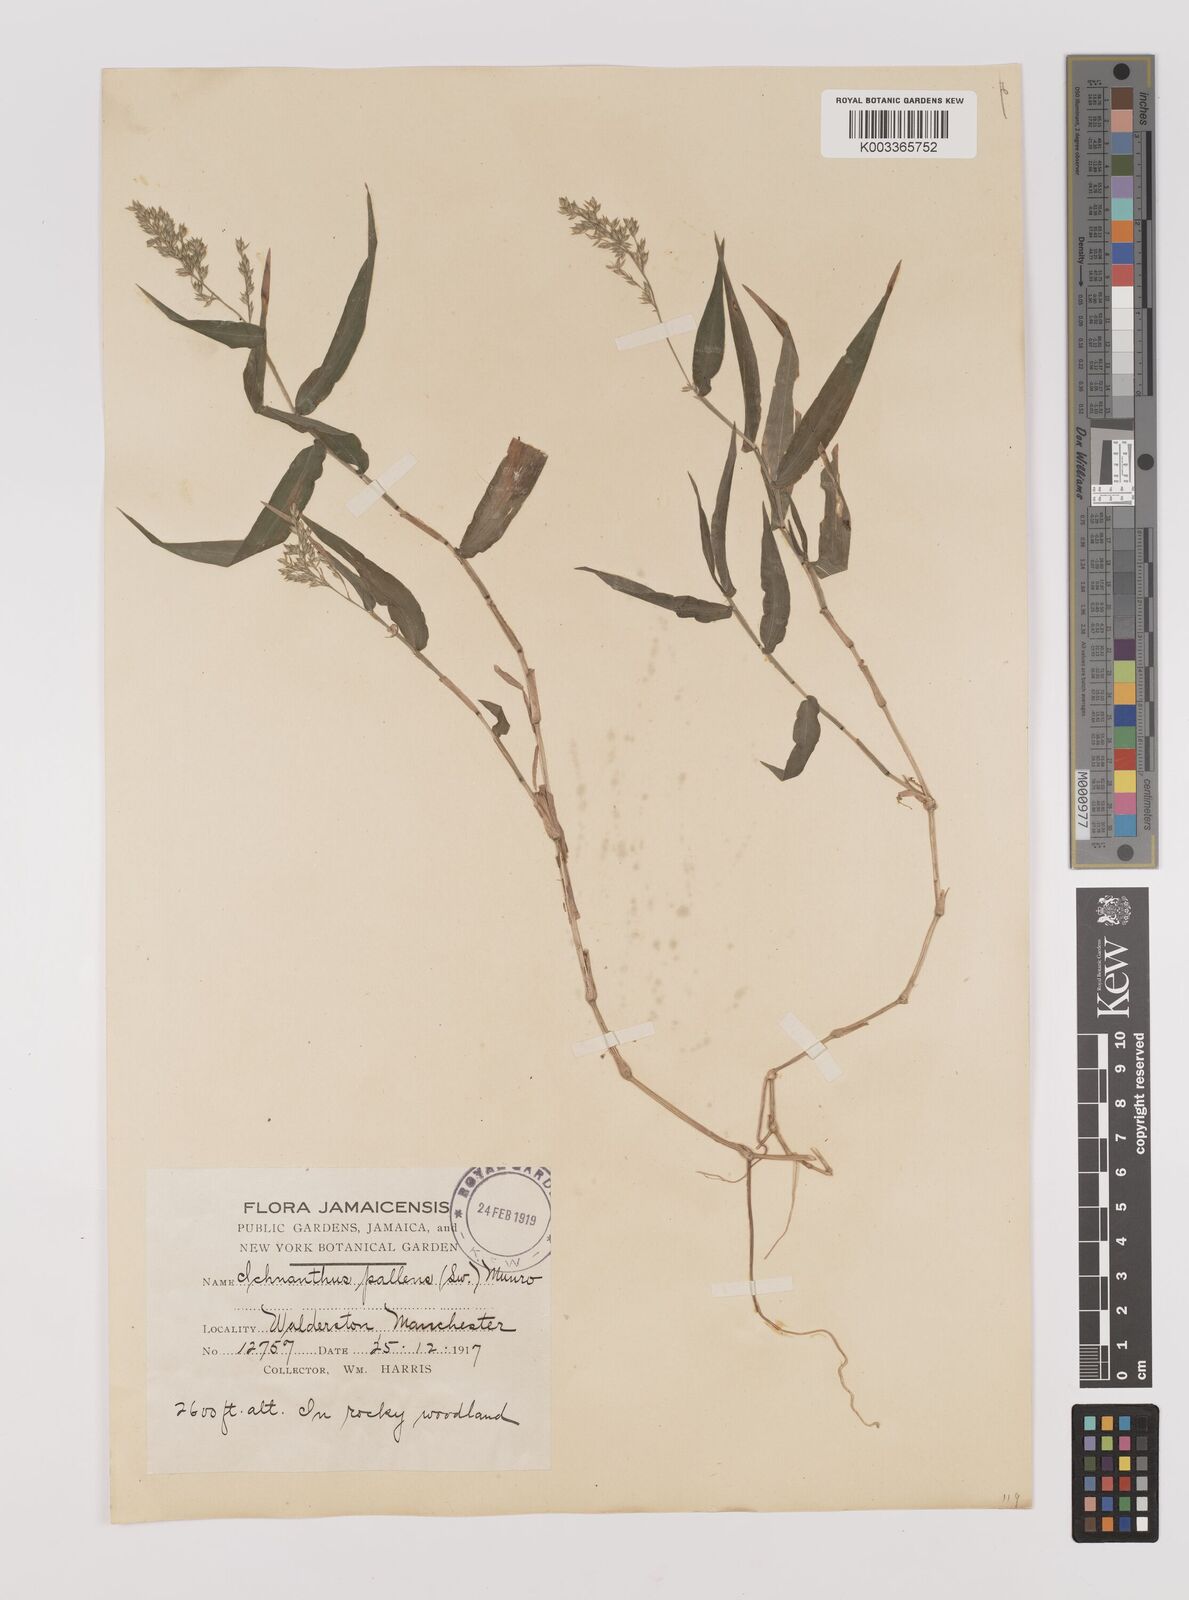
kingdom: Plantae
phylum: Tracheophyta
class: Liliopsida
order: Poales
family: Poaceae
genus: Ichnanthus
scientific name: Ichnanthus pallens
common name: Water grass
